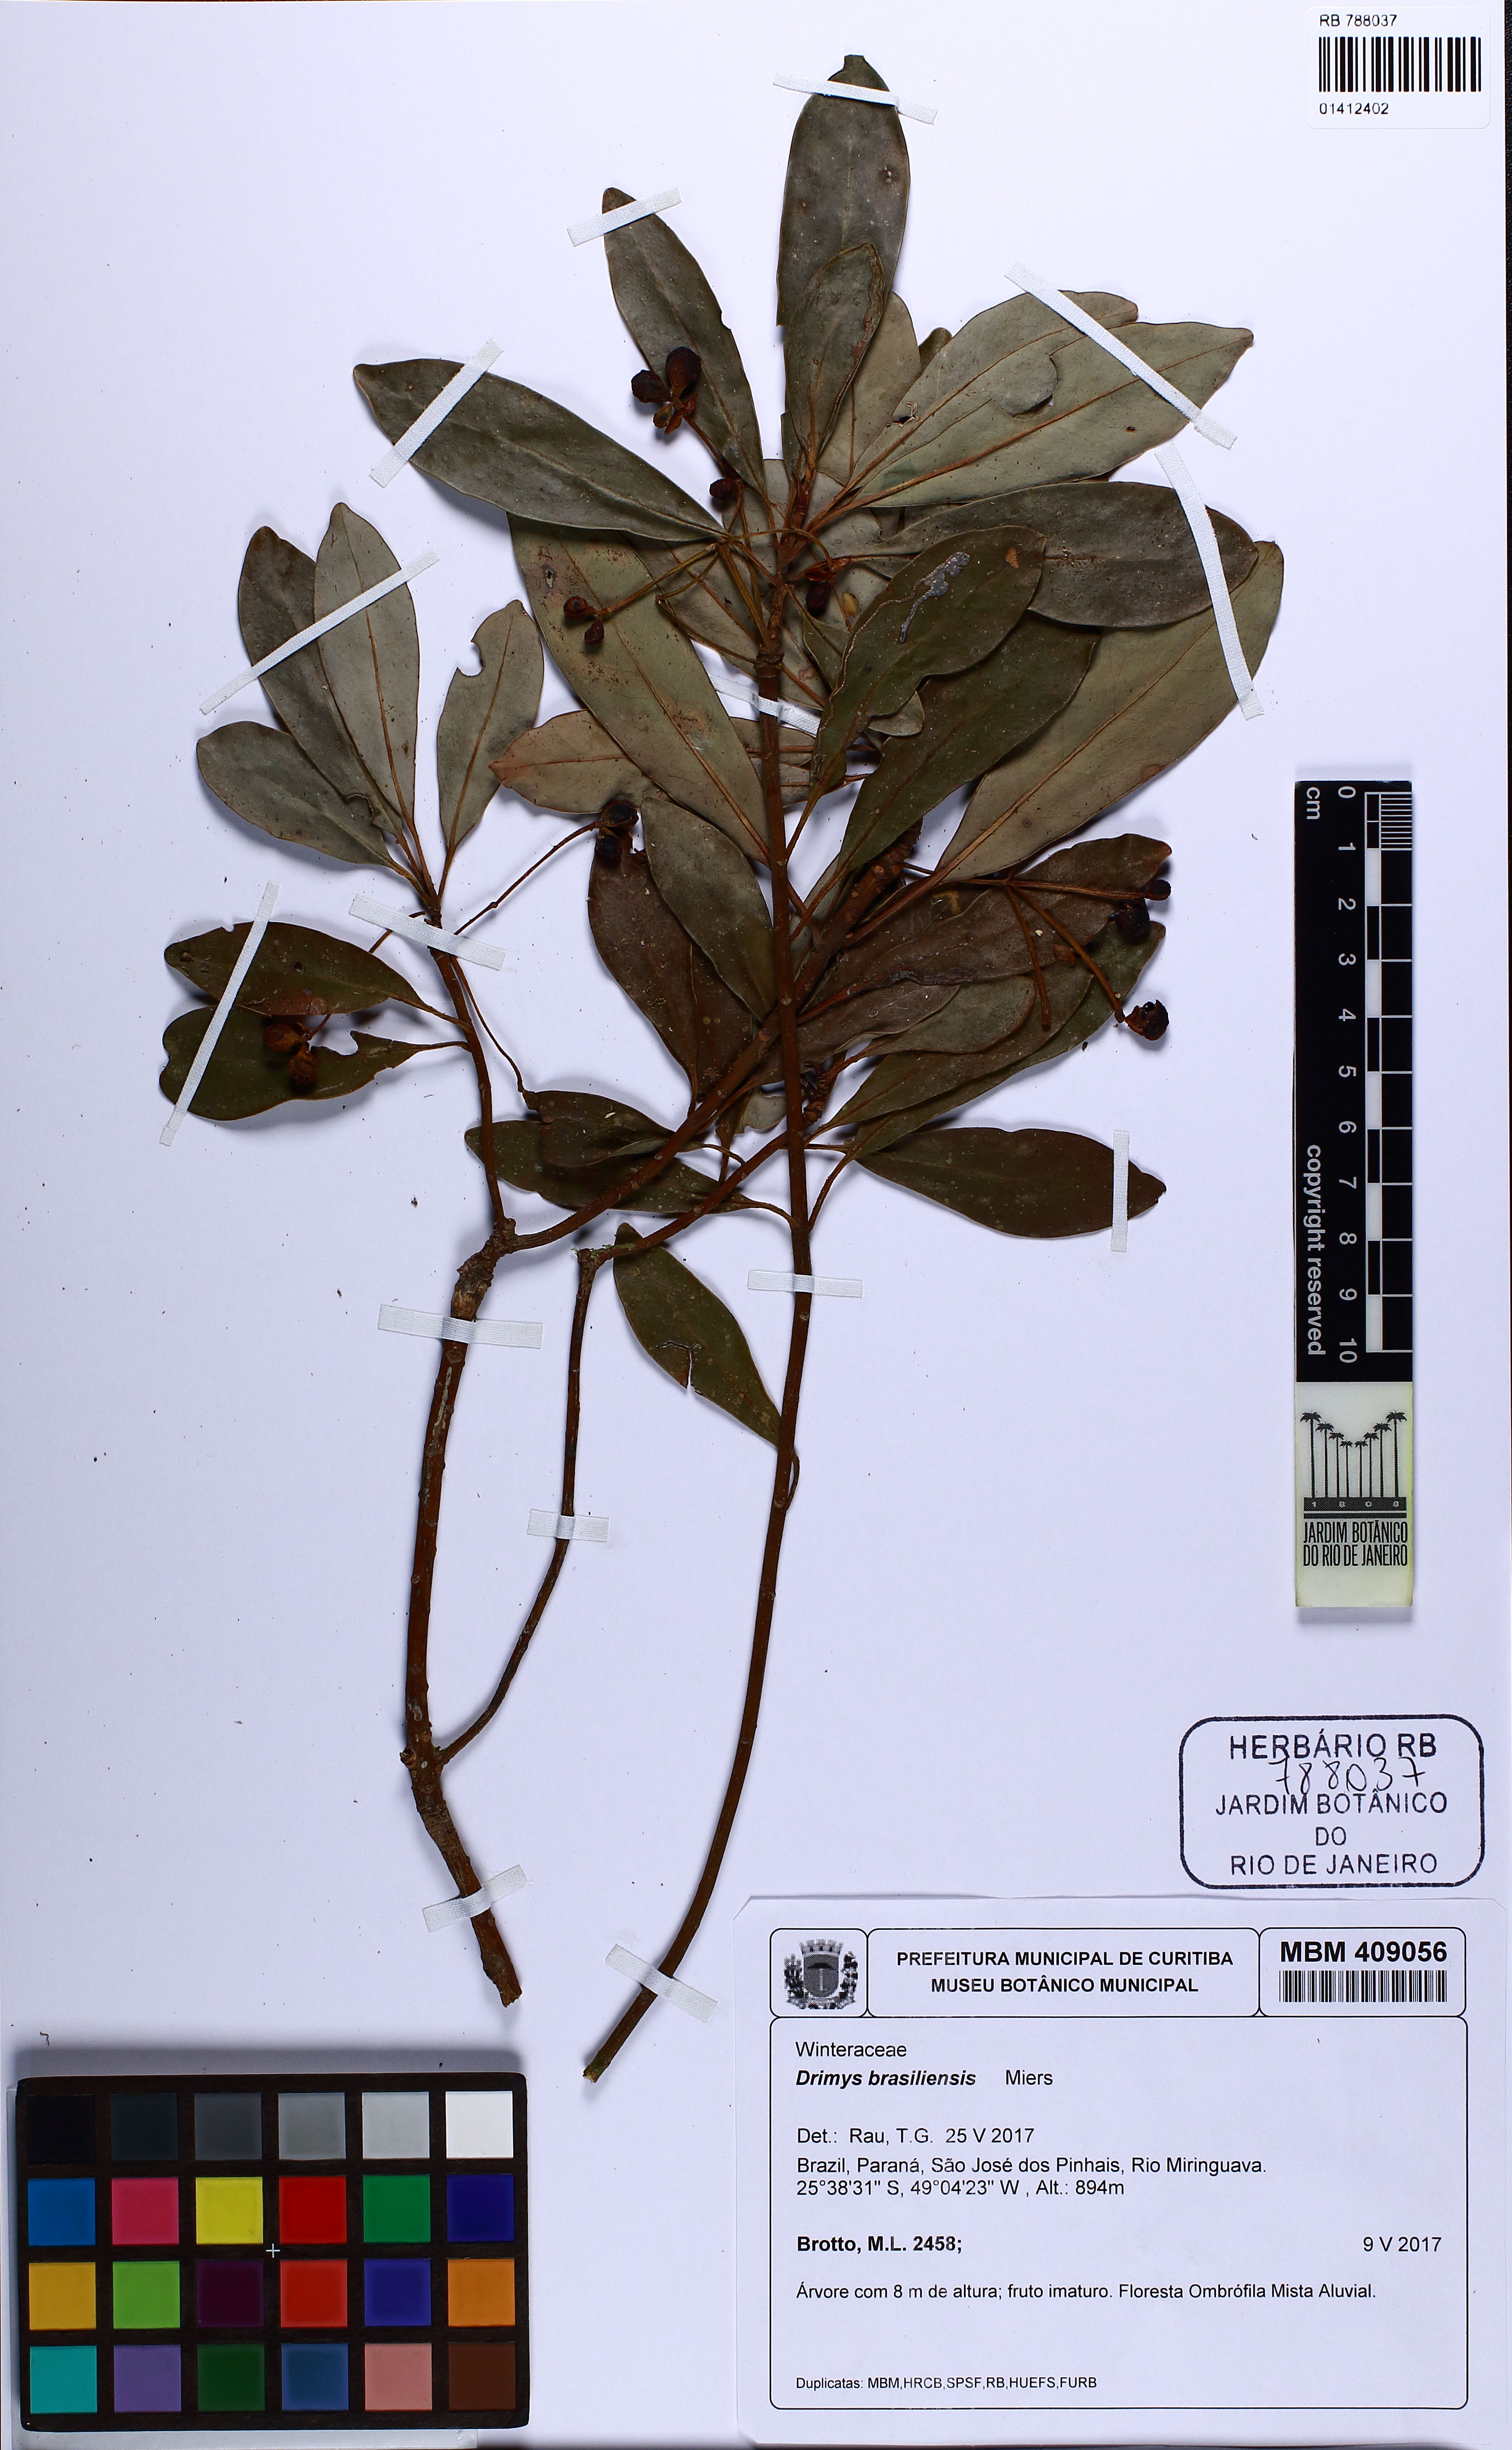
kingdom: Plantae
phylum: Tracheophyta
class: Magnoliopsida
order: Canellales
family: Winteraceae
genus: Drimys
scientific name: Drimys brasiliensis
